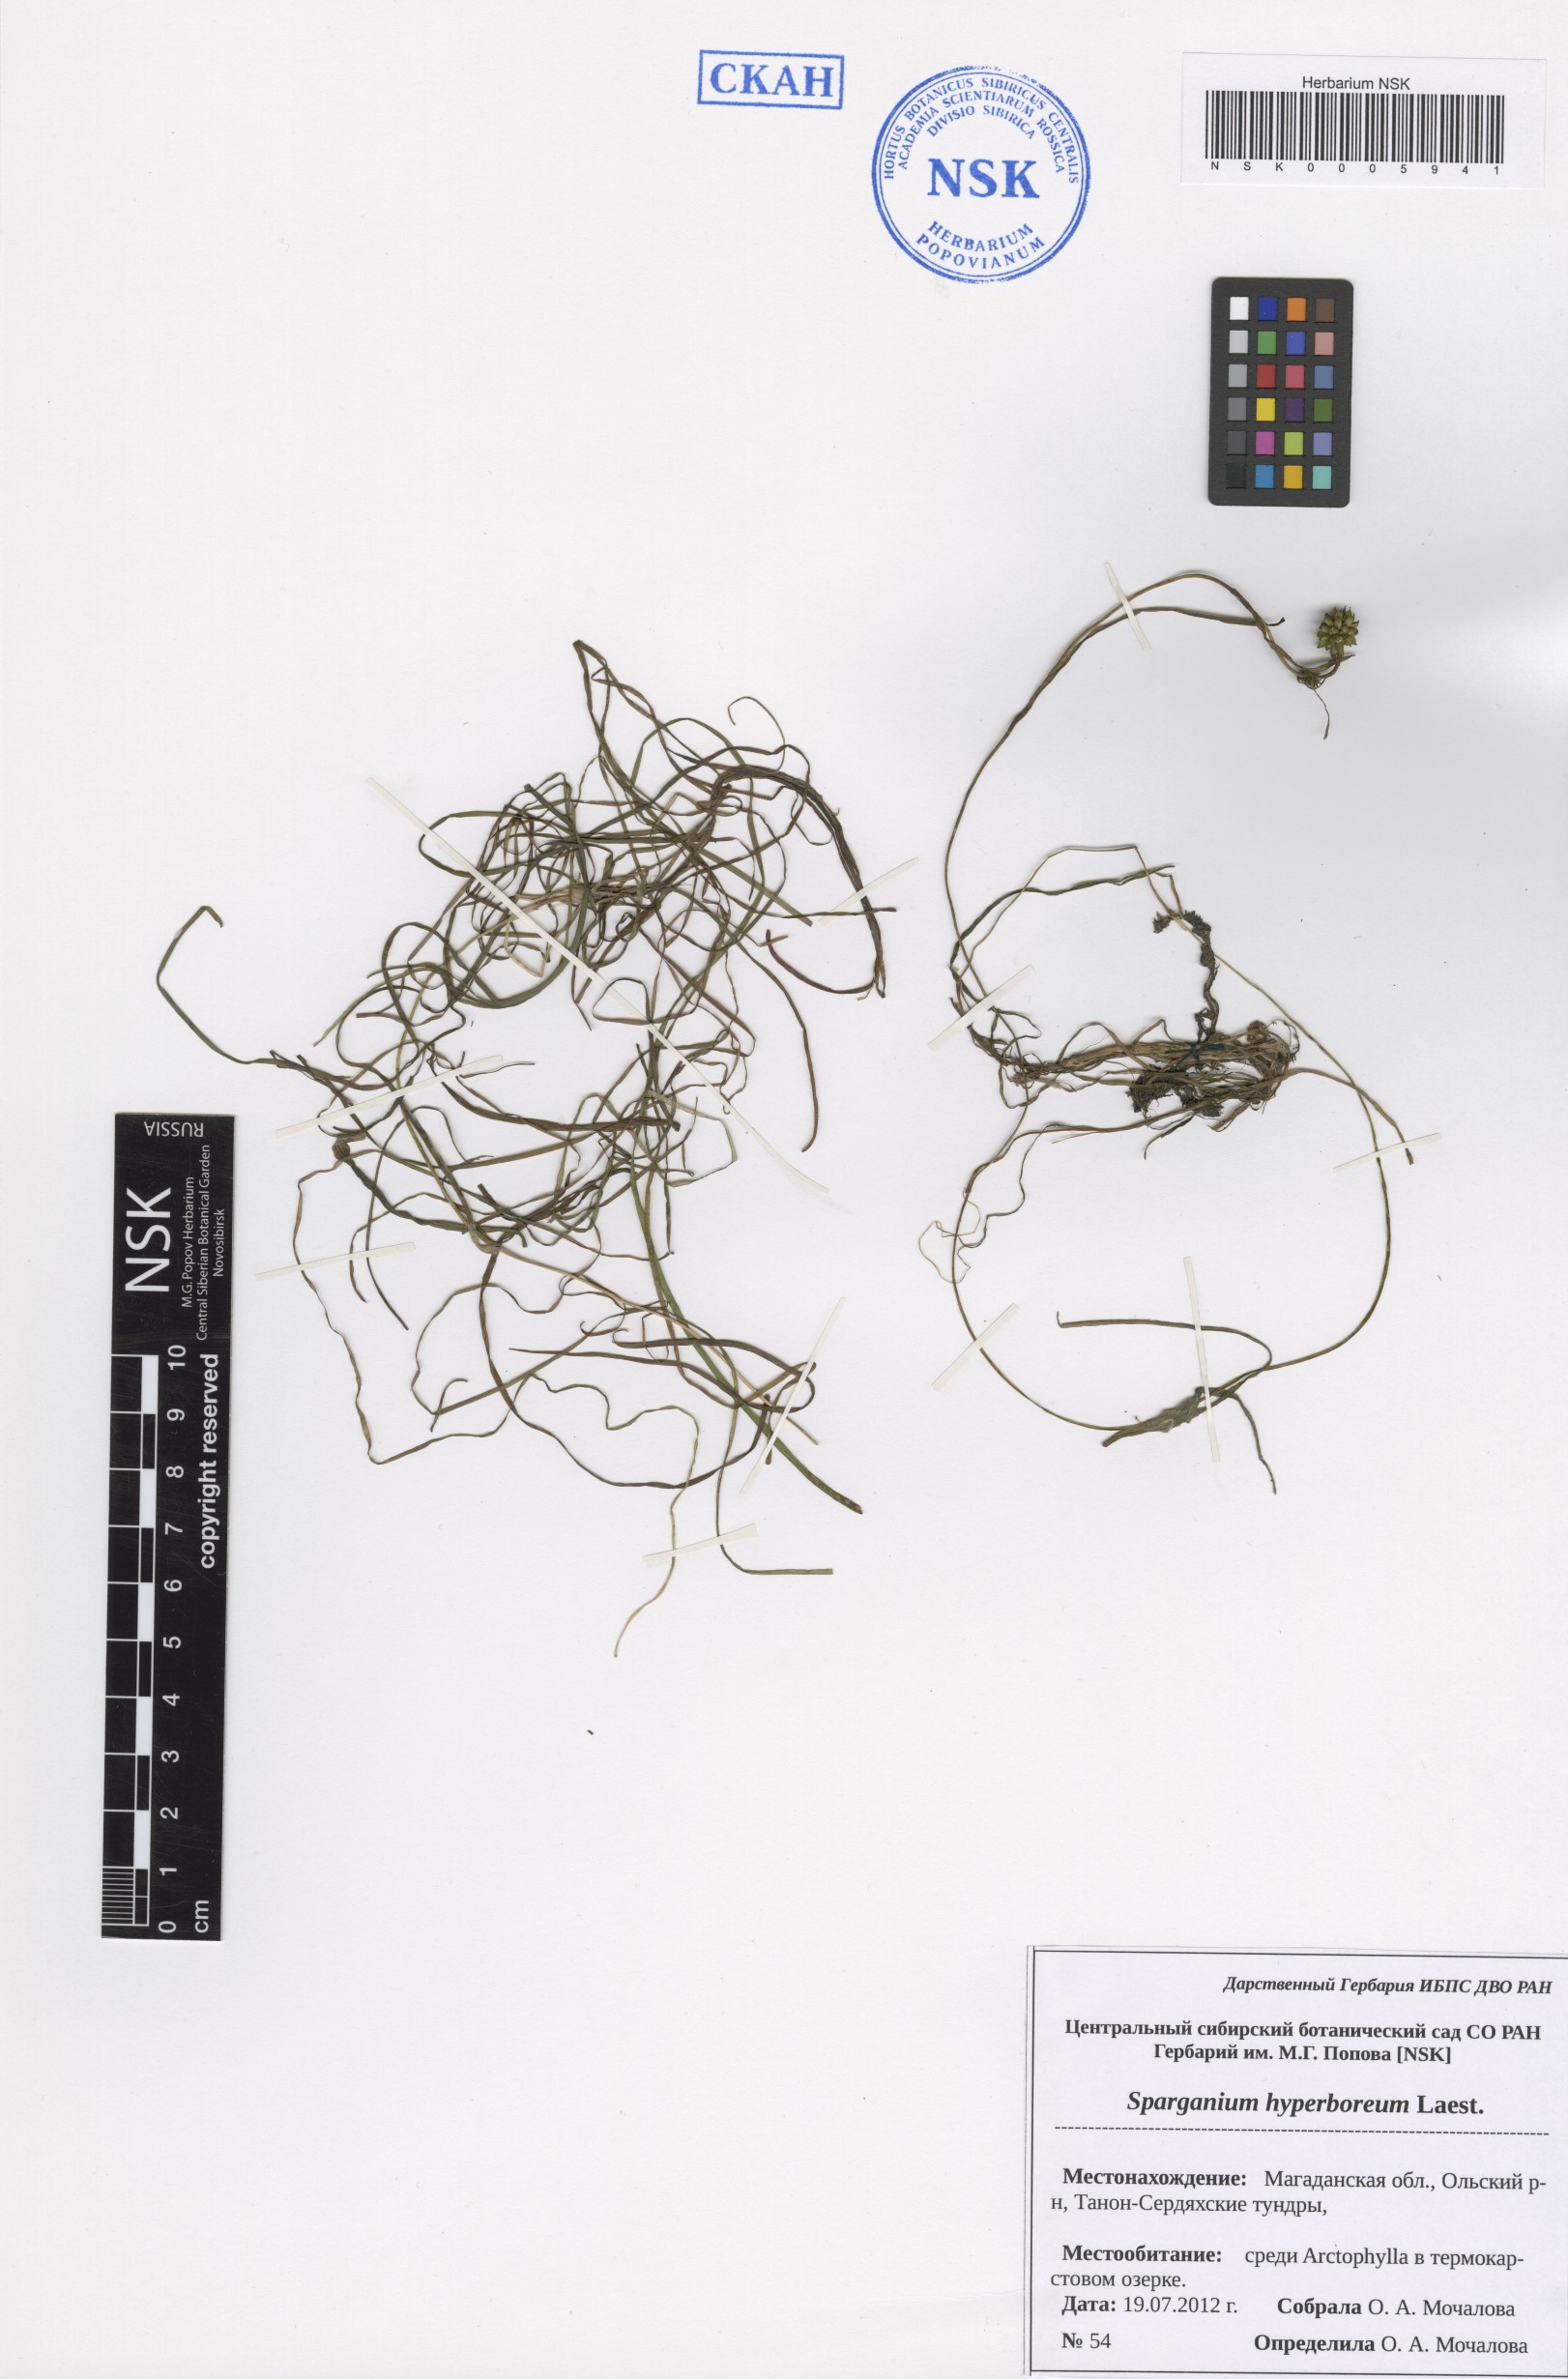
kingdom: Plantae
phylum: Tracheophyta
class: Liliopsida
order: Poales
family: Typhaceae
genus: Sparganium
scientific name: Sparganium hyperboreum
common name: Arctic burreed
